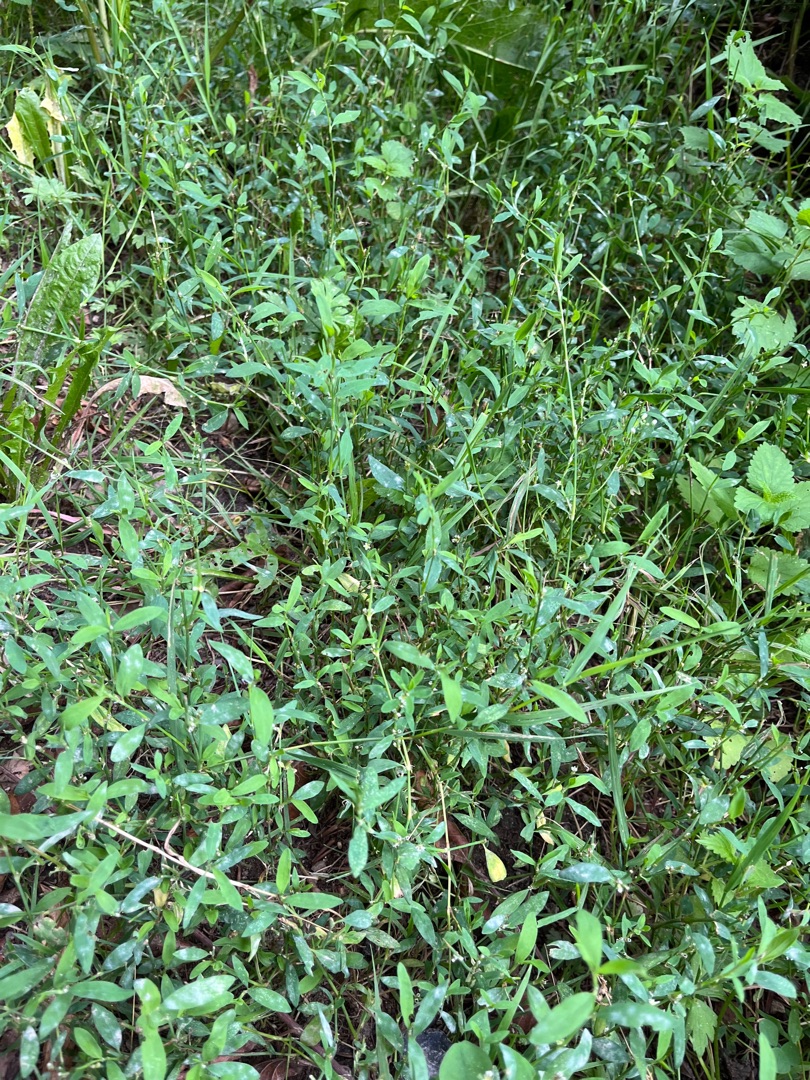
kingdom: Plantae
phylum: Tracheophyta
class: Magnoliopsida
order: Caryophyllales
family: Polygonaceae
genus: Polygonum
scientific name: Polygonum aviculare
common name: Vej-pileurt
